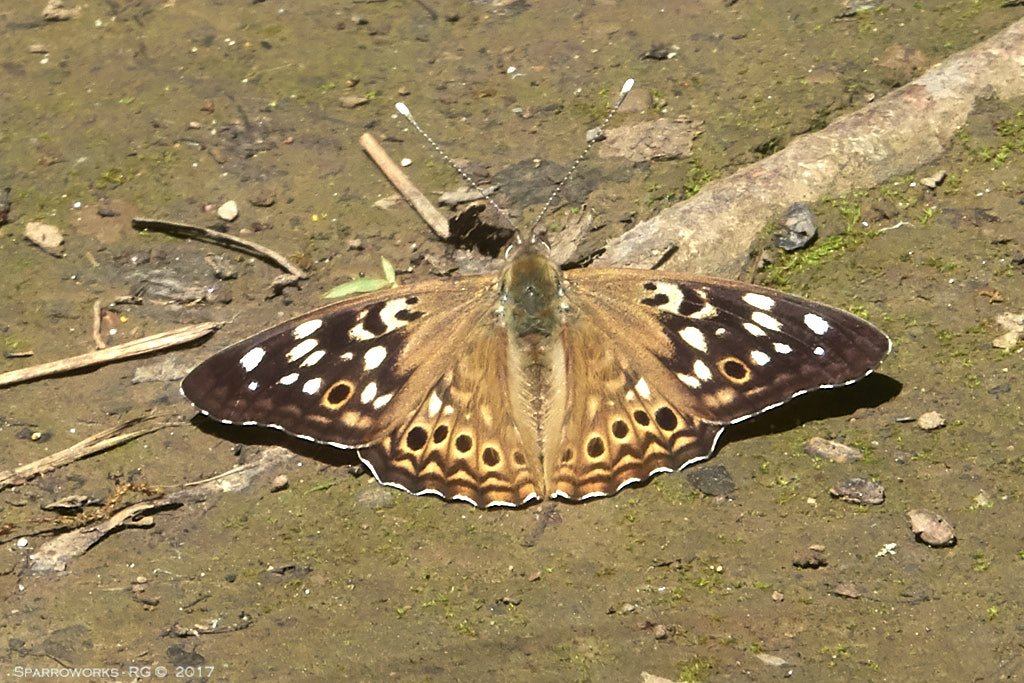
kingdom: Animalia
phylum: Arthropoda
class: Insecta
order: Lepidoptera
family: Nymphalidae
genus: Asterocampa
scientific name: Asterocampa celtis
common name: Hackberry Emperor
